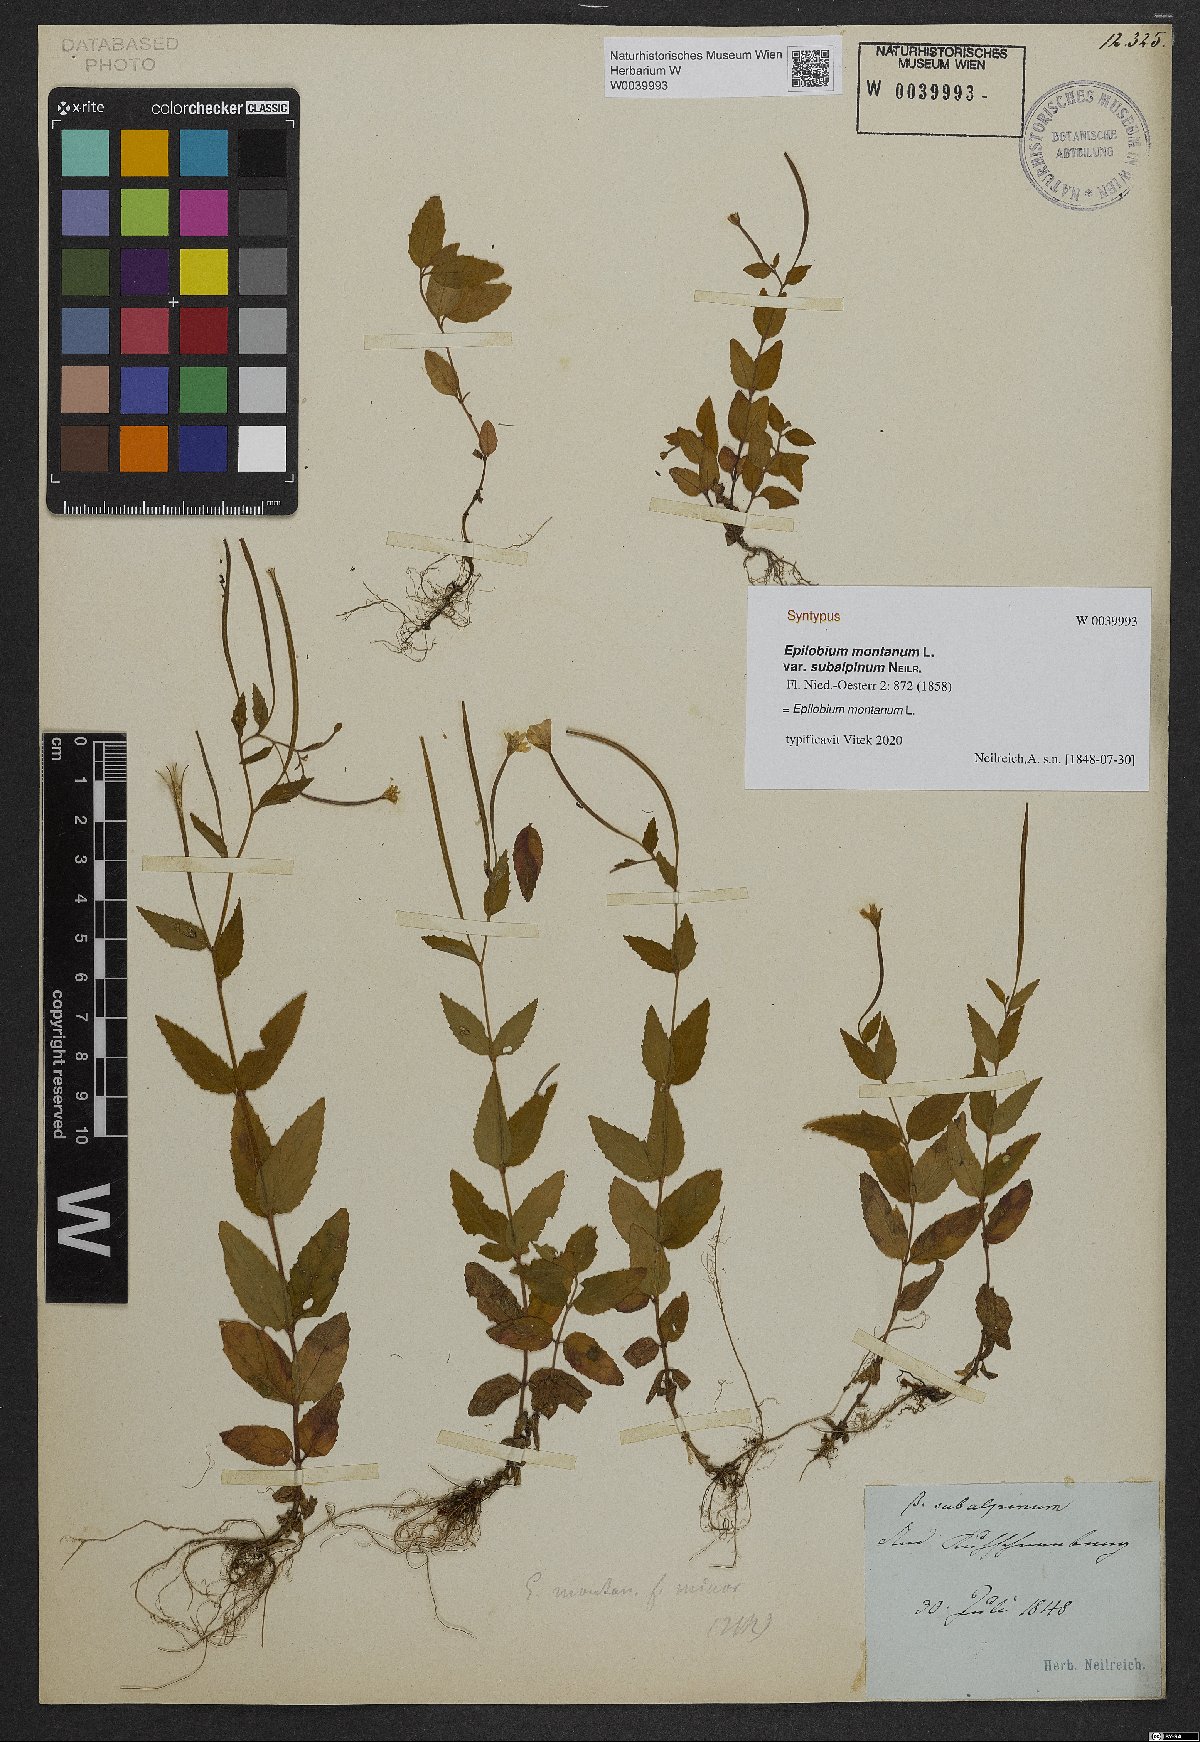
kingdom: Plantae
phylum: Tracheophyta
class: Magnoliopsida
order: Myrtales
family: Onagraceae
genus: Epilobium
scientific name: Epilobium montanum
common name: Broad-leaved willowherb
